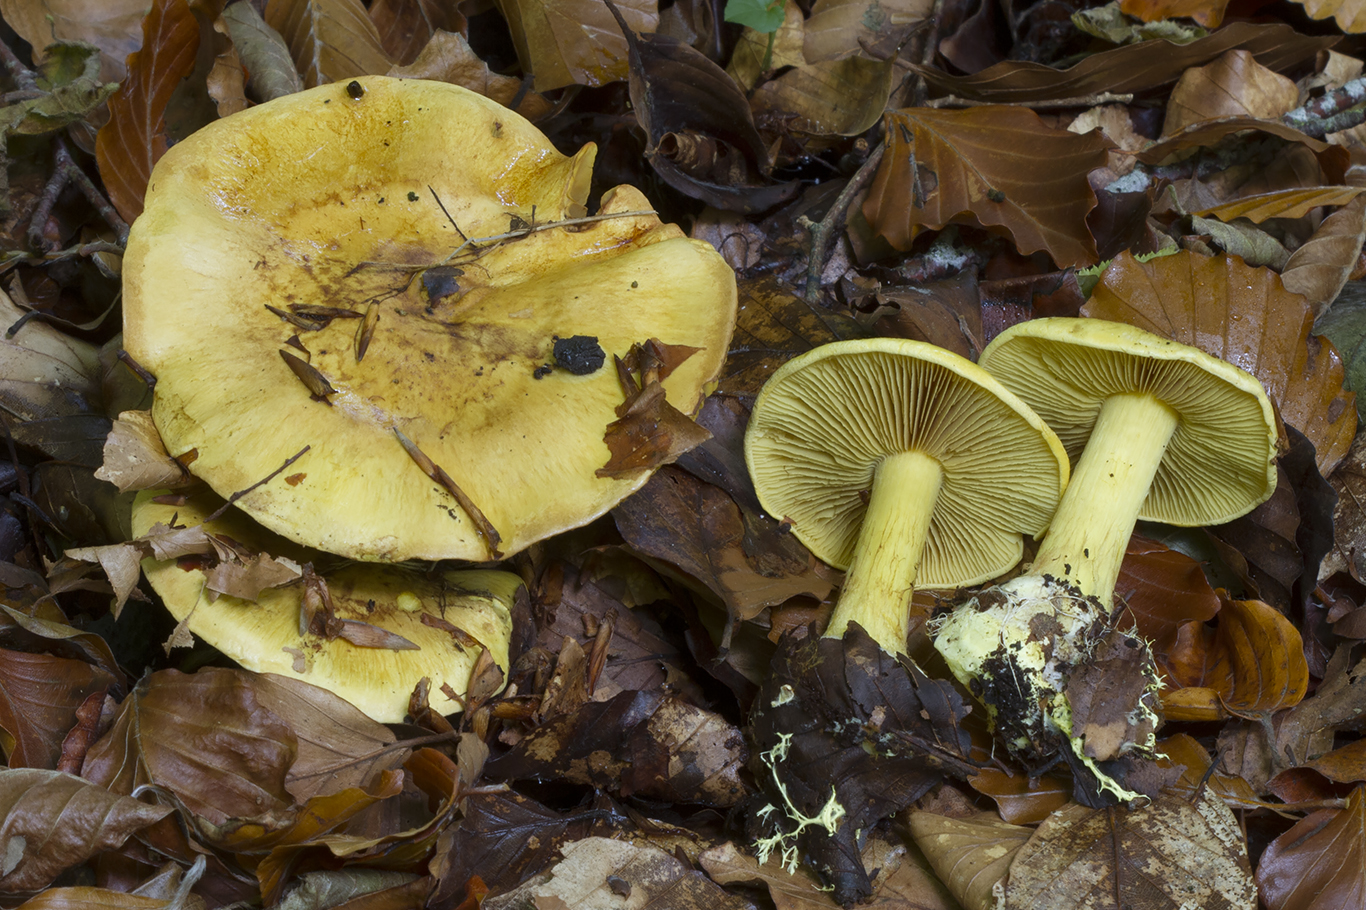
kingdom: Fungi
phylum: Basidiomycota
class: Agaricomycetes
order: Agaricales
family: Cortinariaceae
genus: Calonarius
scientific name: Calonarius splendens
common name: sirene-slørhat
